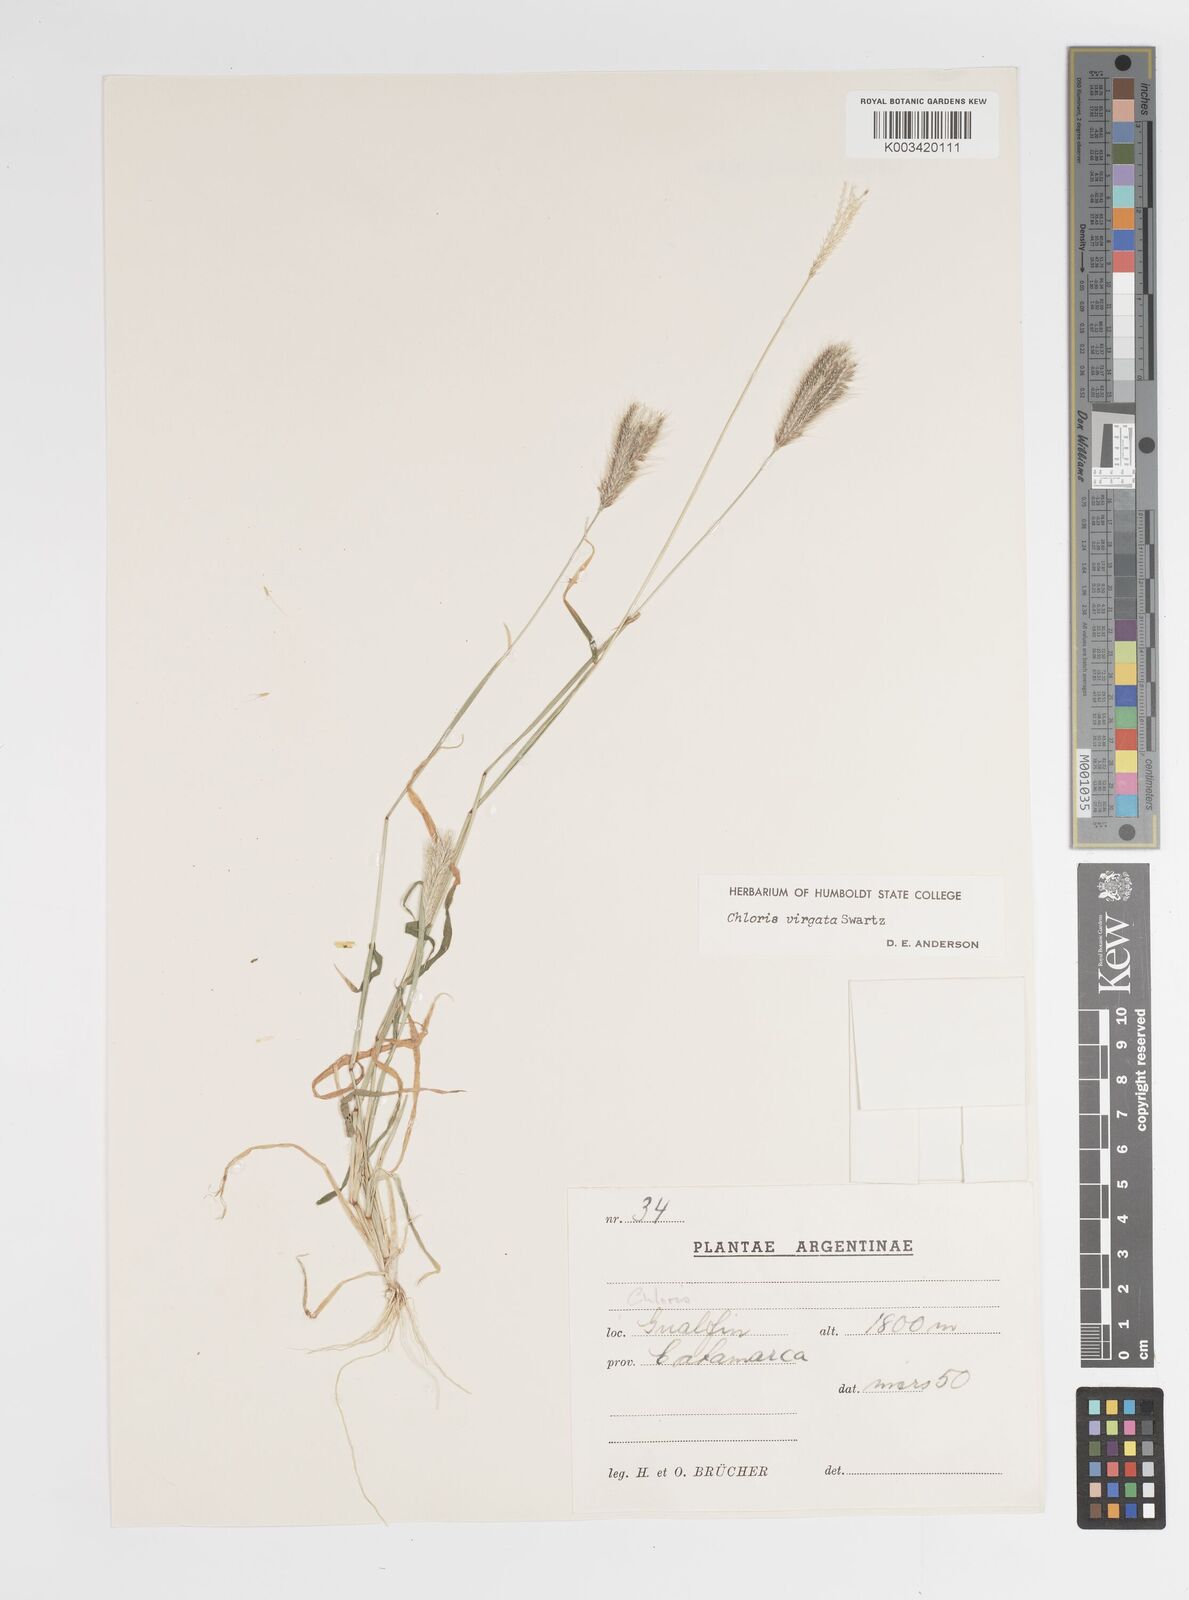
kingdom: Plantae
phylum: Tracheophyta
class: Liliopsida
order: Poales
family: Poaceae
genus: Chloris
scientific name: Chloris virgata
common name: Feathery rhodes-grass
